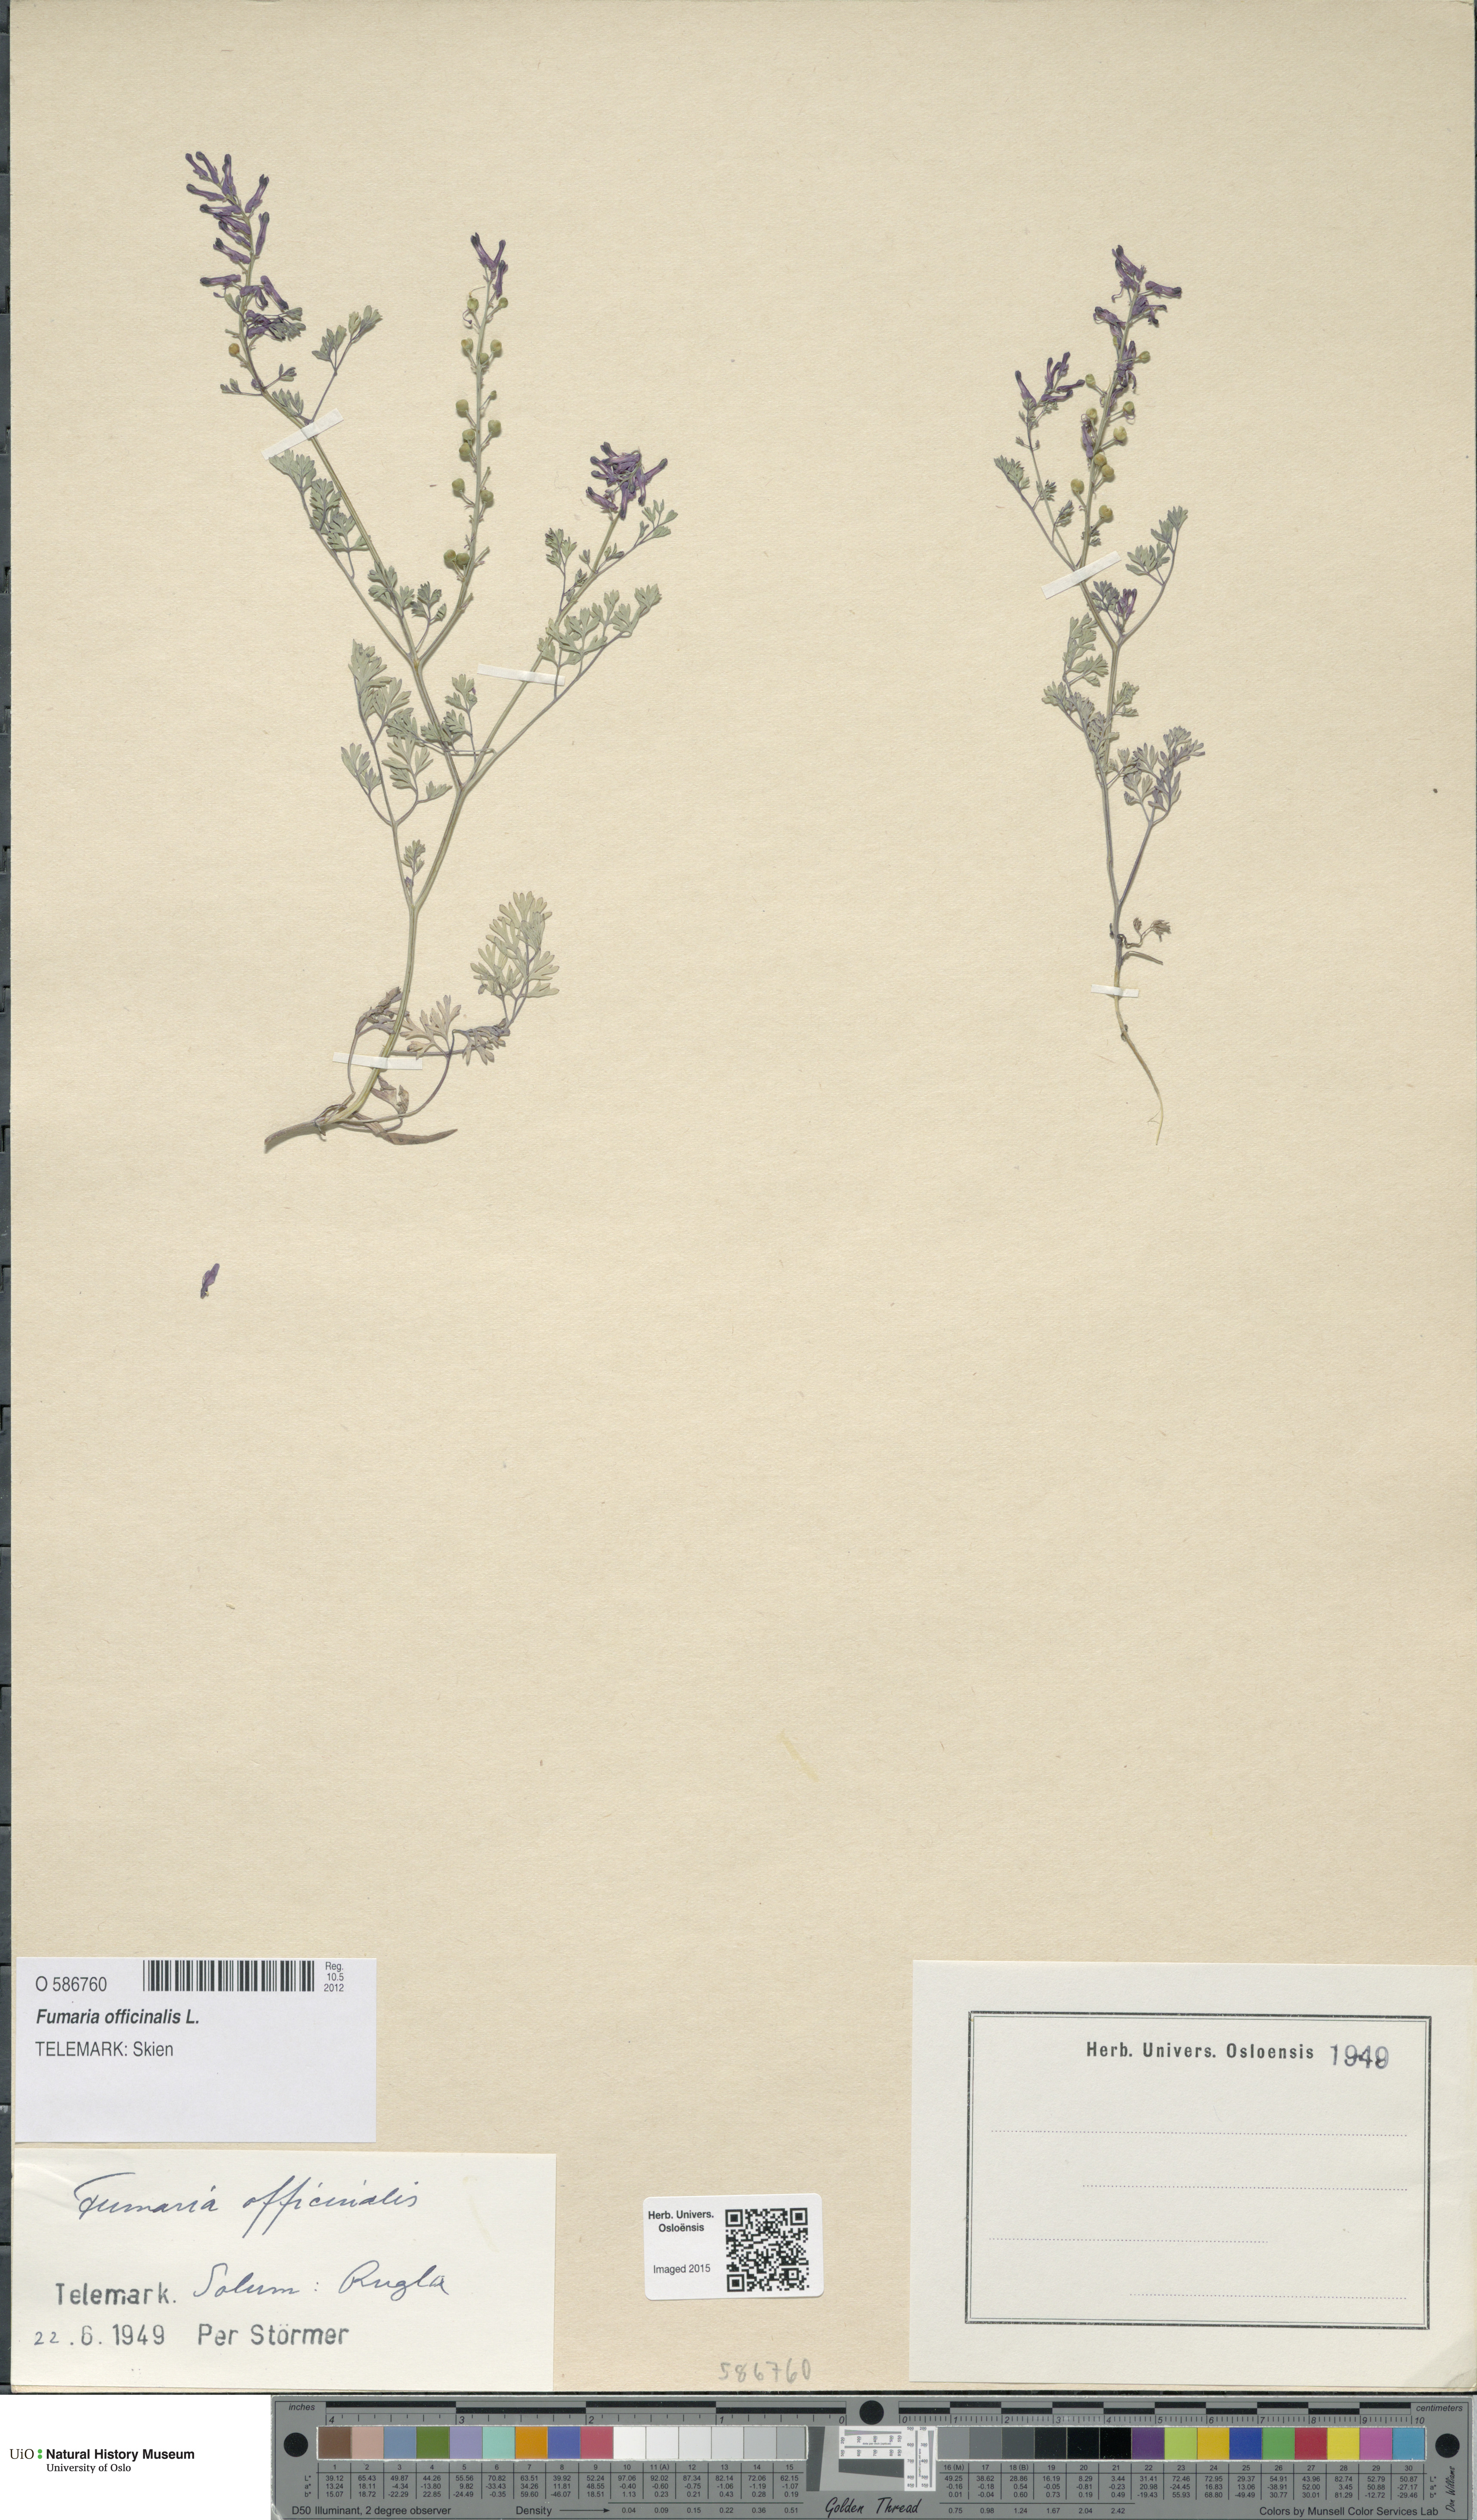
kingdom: Plantae
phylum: Tracheophyta
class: Magnoliopsida
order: Ranunculales
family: Papaveraceae
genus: Fumaria
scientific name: Fumaria officinalis
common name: Common fumitory
